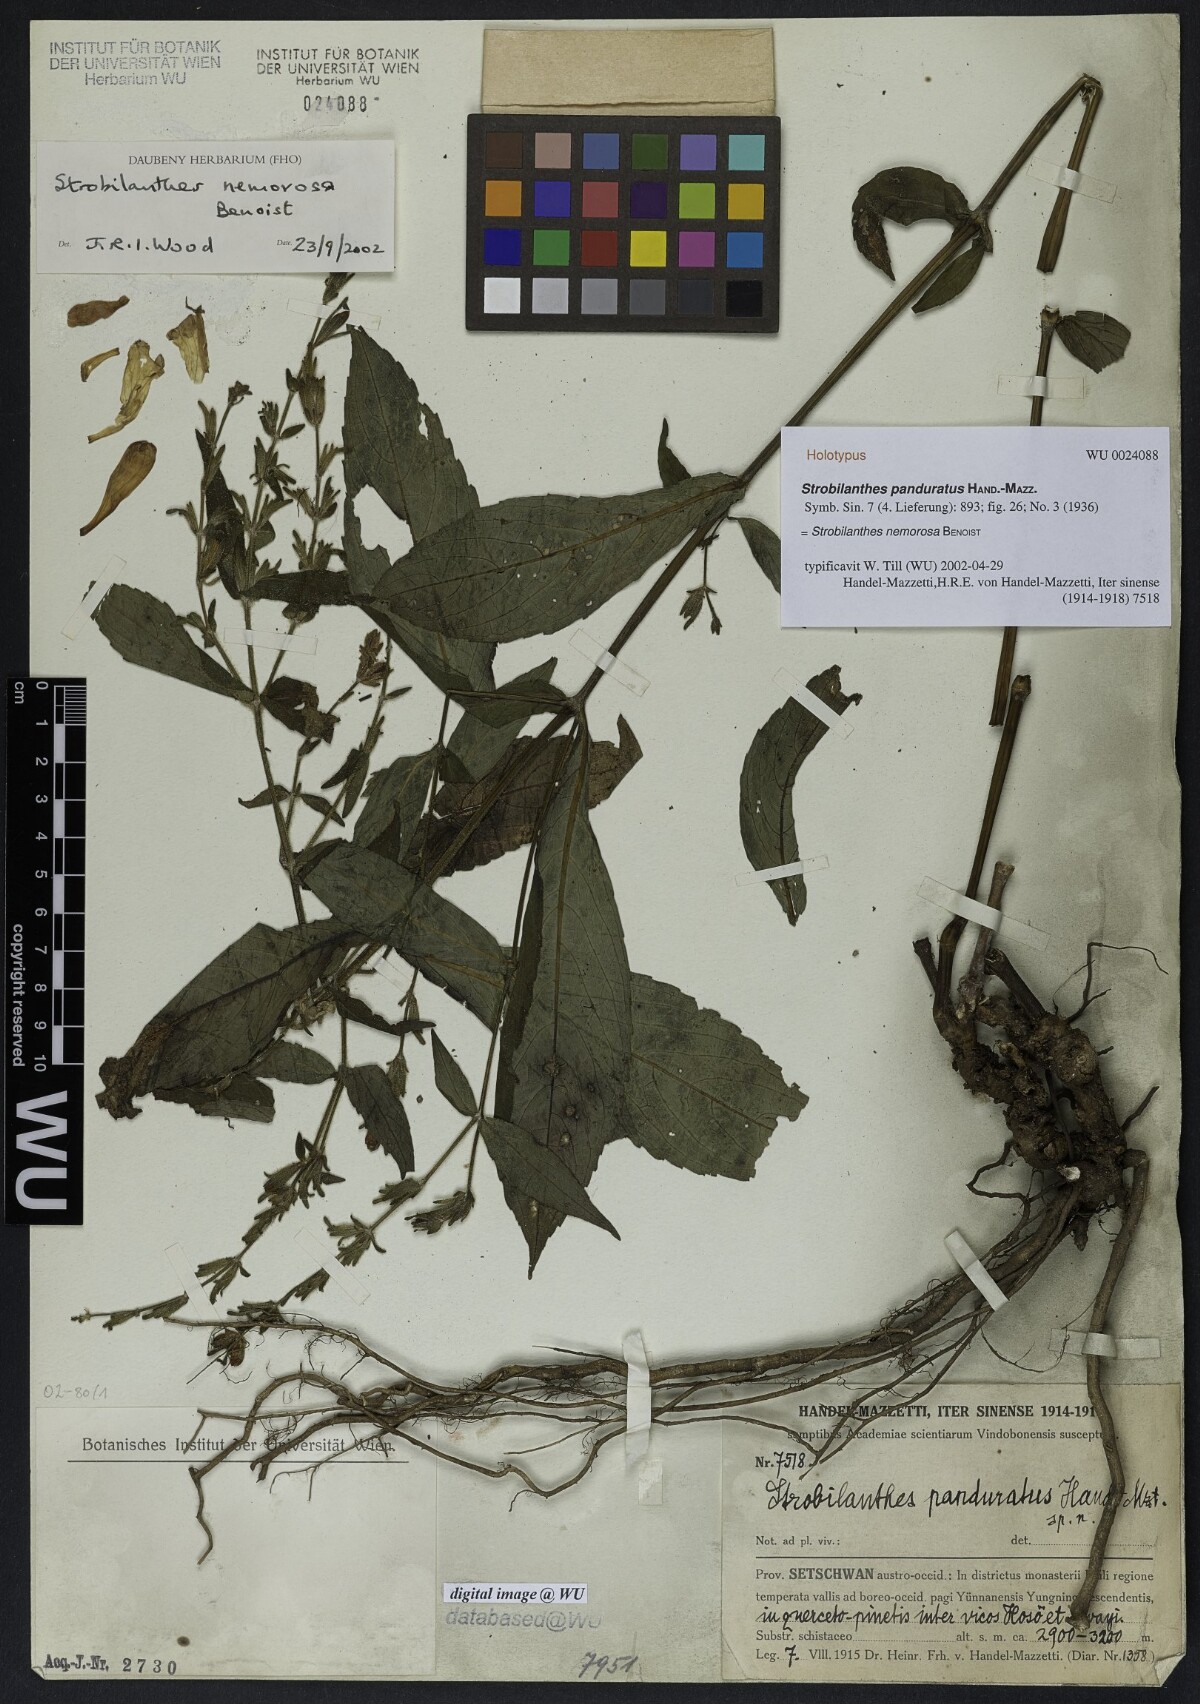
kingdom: Plantae
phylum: Tracheophyta
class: Magnoliopsida
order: Lamiales
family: Acanthaceae
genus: Strobilanthes
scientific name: Strobilanthes lachenensis
